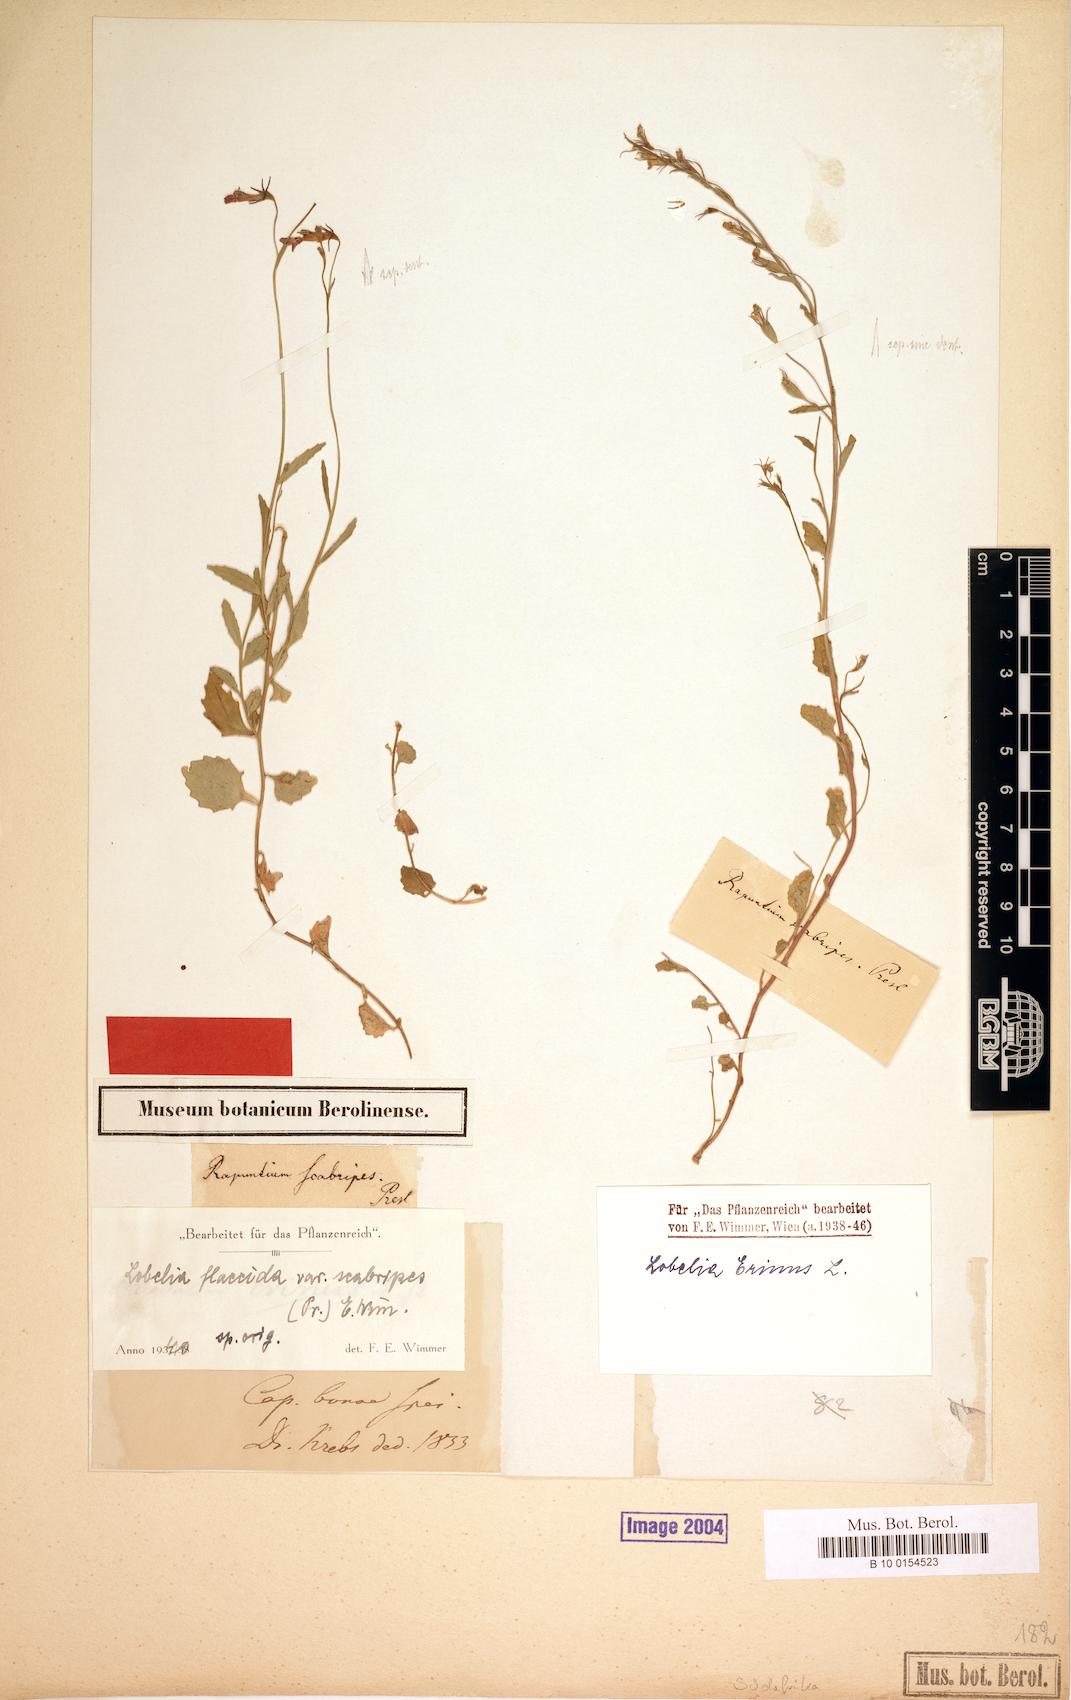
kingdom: Plantae
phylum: Tracheophyta
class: Magnoliopsida
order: Asterales
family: Campanulaceae
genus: Lobelia
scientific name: Lobelia flaccida
